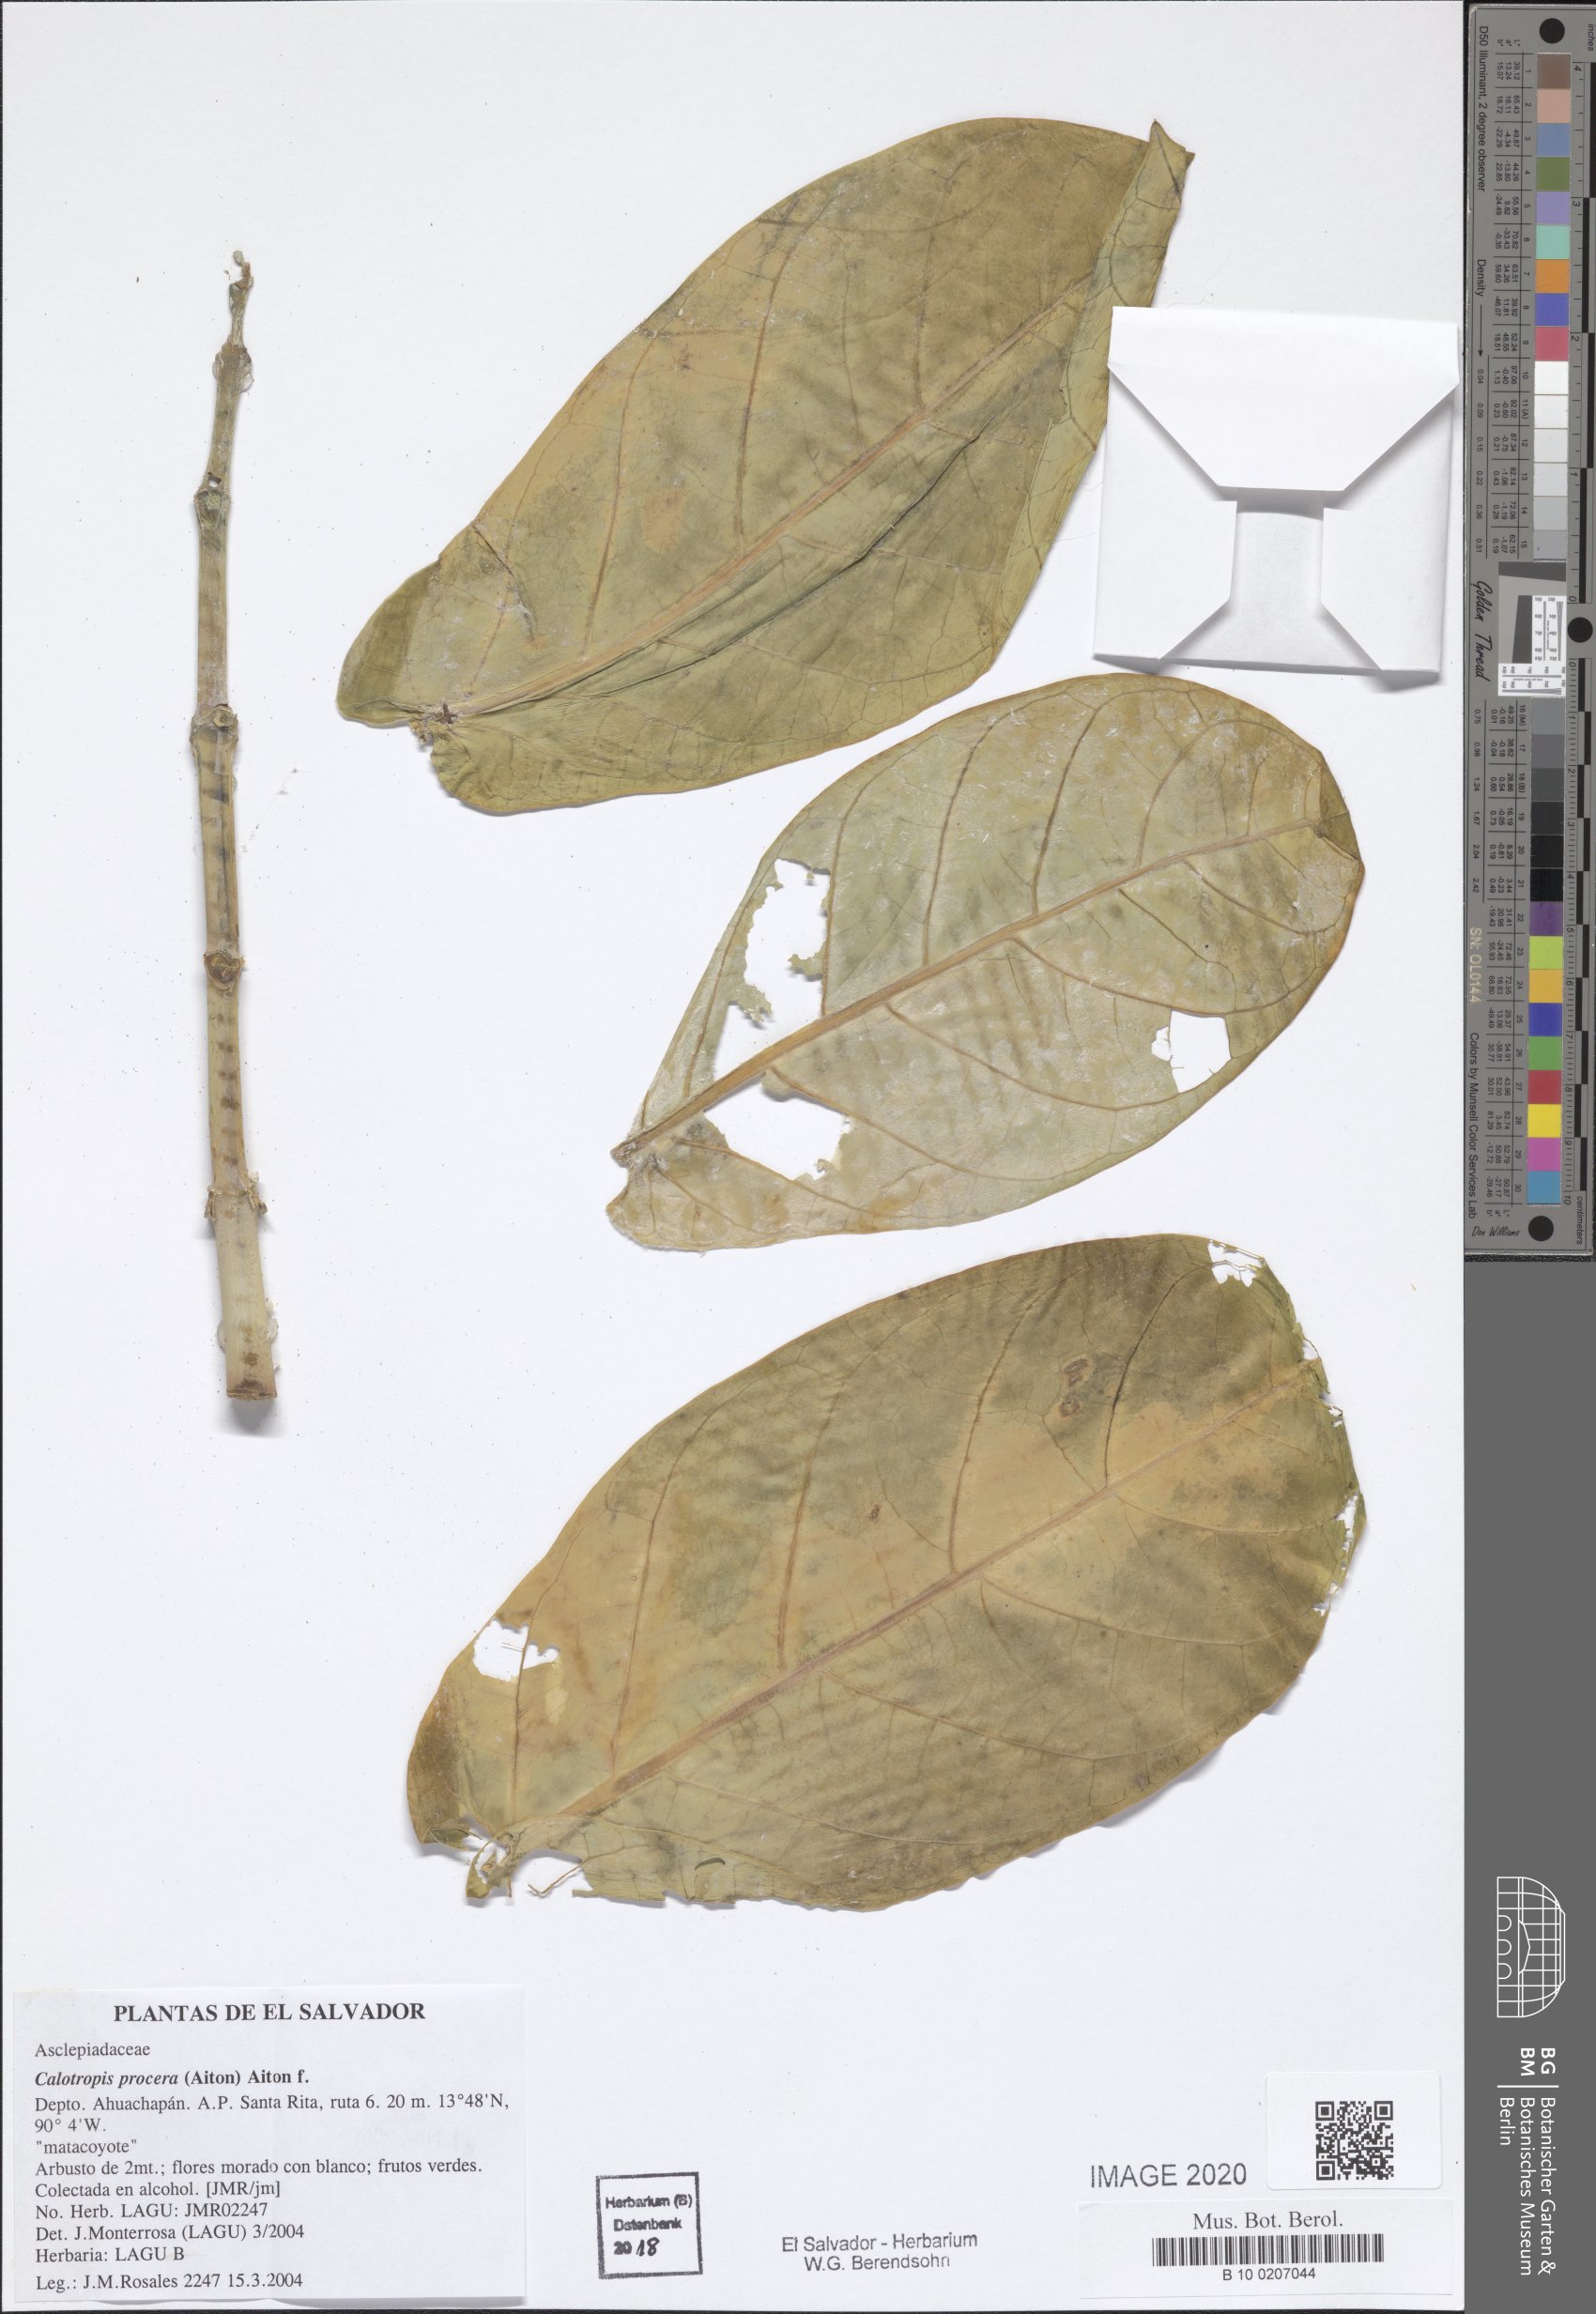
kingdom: Plantae
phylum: Tracheophyta
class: Magnoliopsida
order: Gentianales
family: Apocynaceae
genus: Calotropis
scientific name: Calotropis procera
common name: Roostertree
